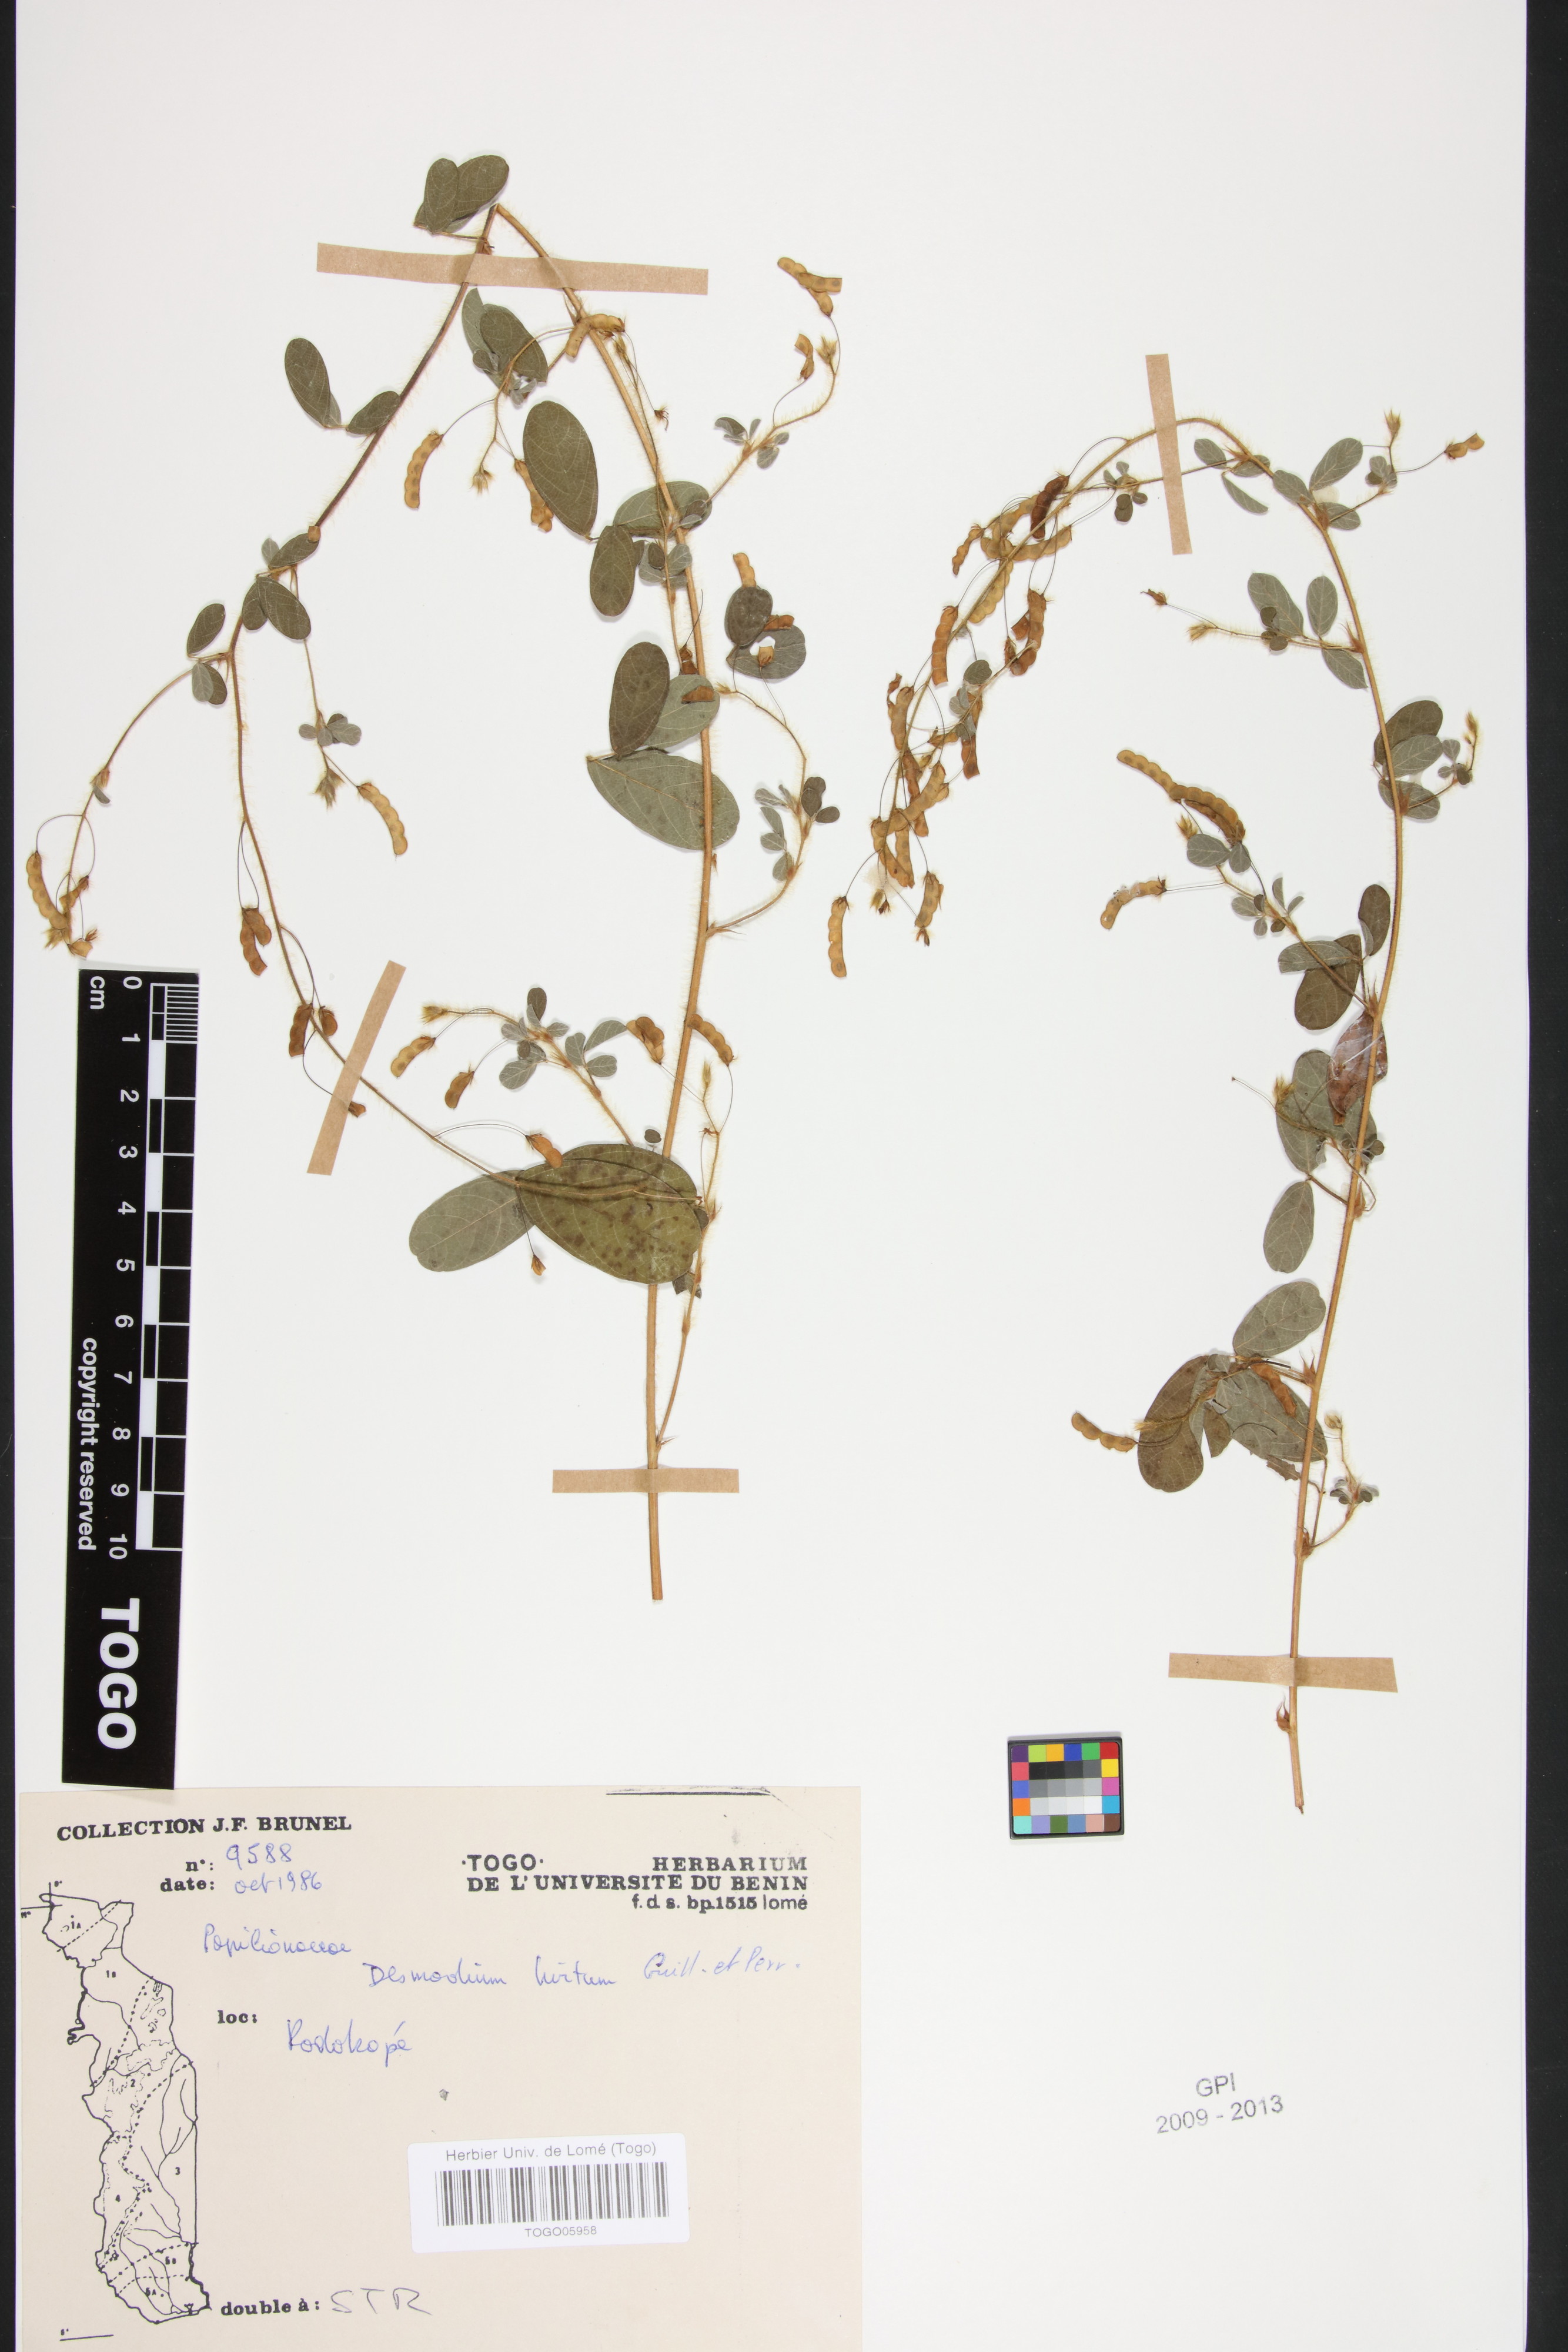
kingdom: Plantae
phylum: Tracheophyta
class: Magnoliopsida
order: Fabales
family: Fabaceae
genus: Grona
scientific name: Grona hirta
